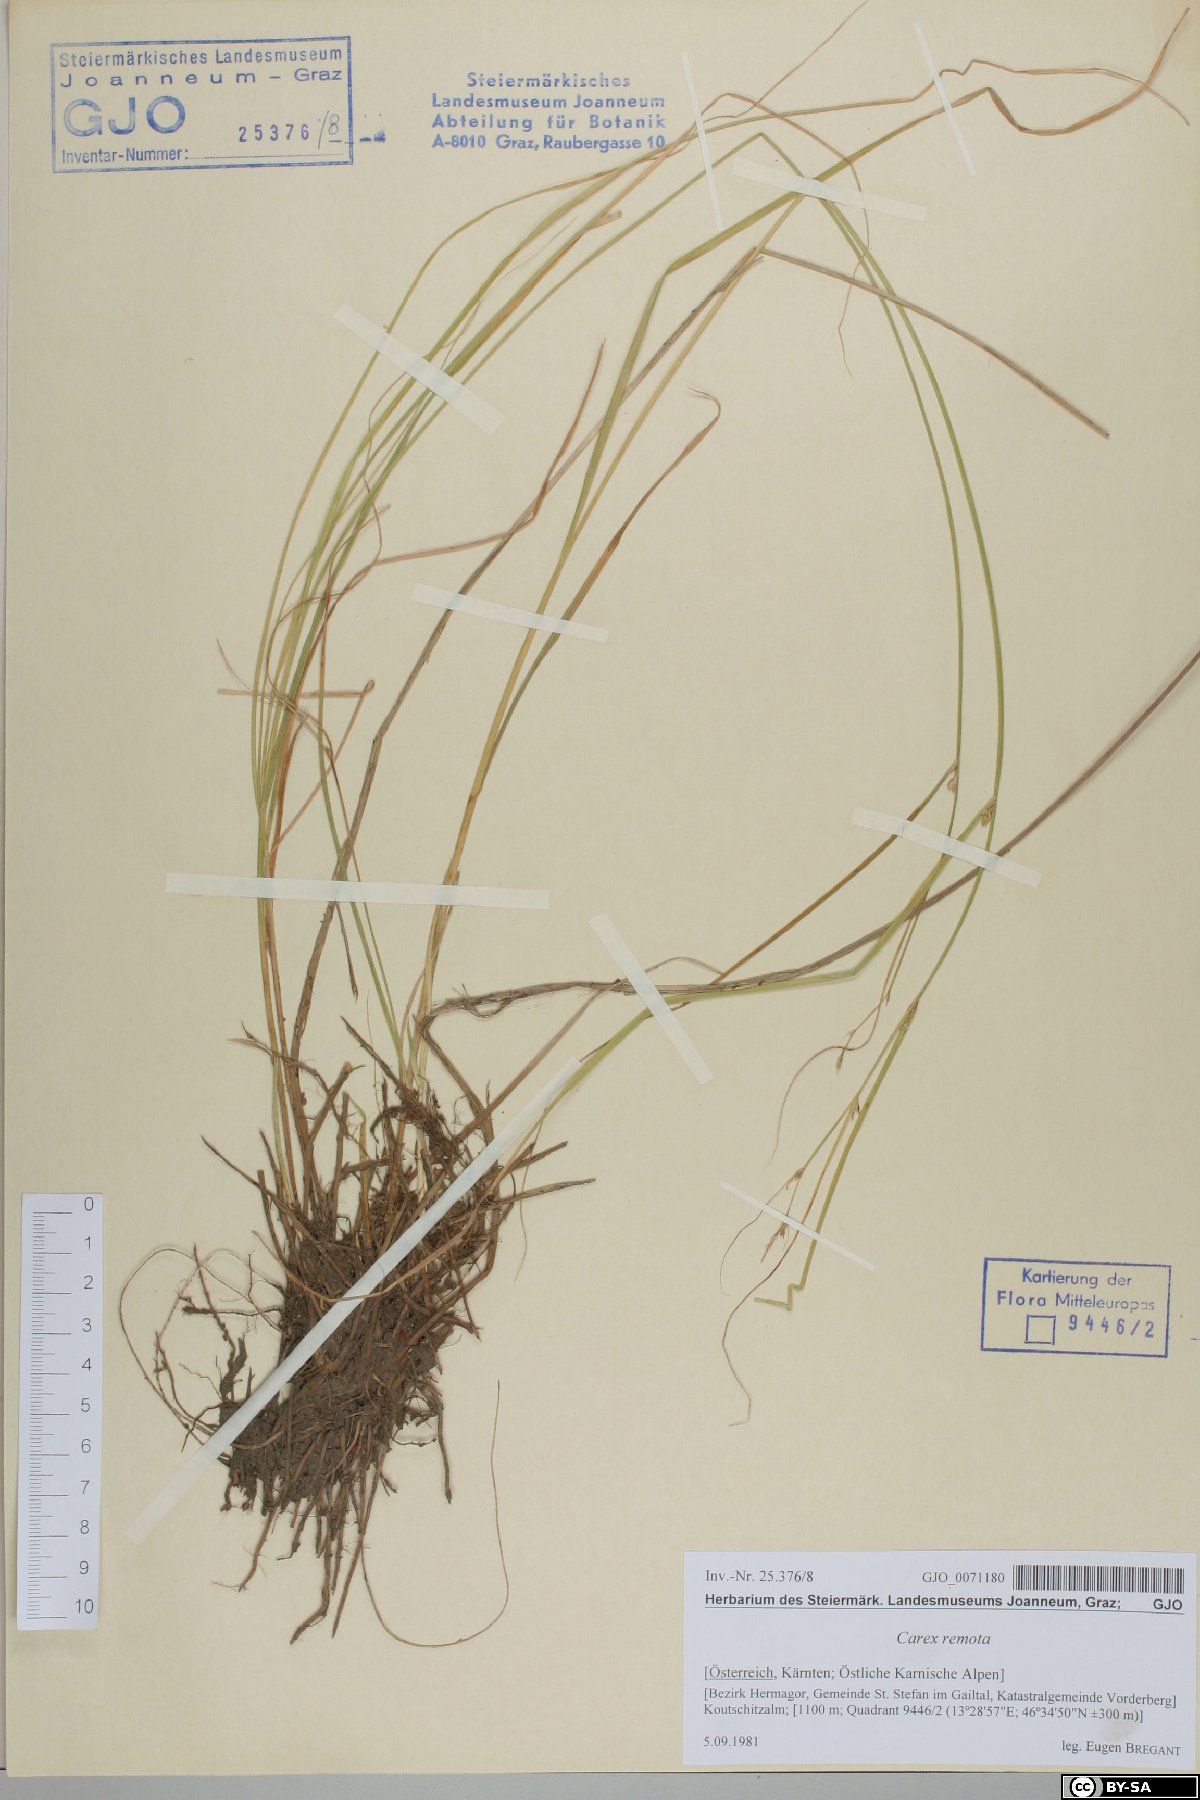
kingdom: Plantae
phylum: Tracheophyta
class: Liliopsida
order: Poales
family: Cyperaceae
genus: Carex
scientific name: Carex remota
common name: Remote sedge
